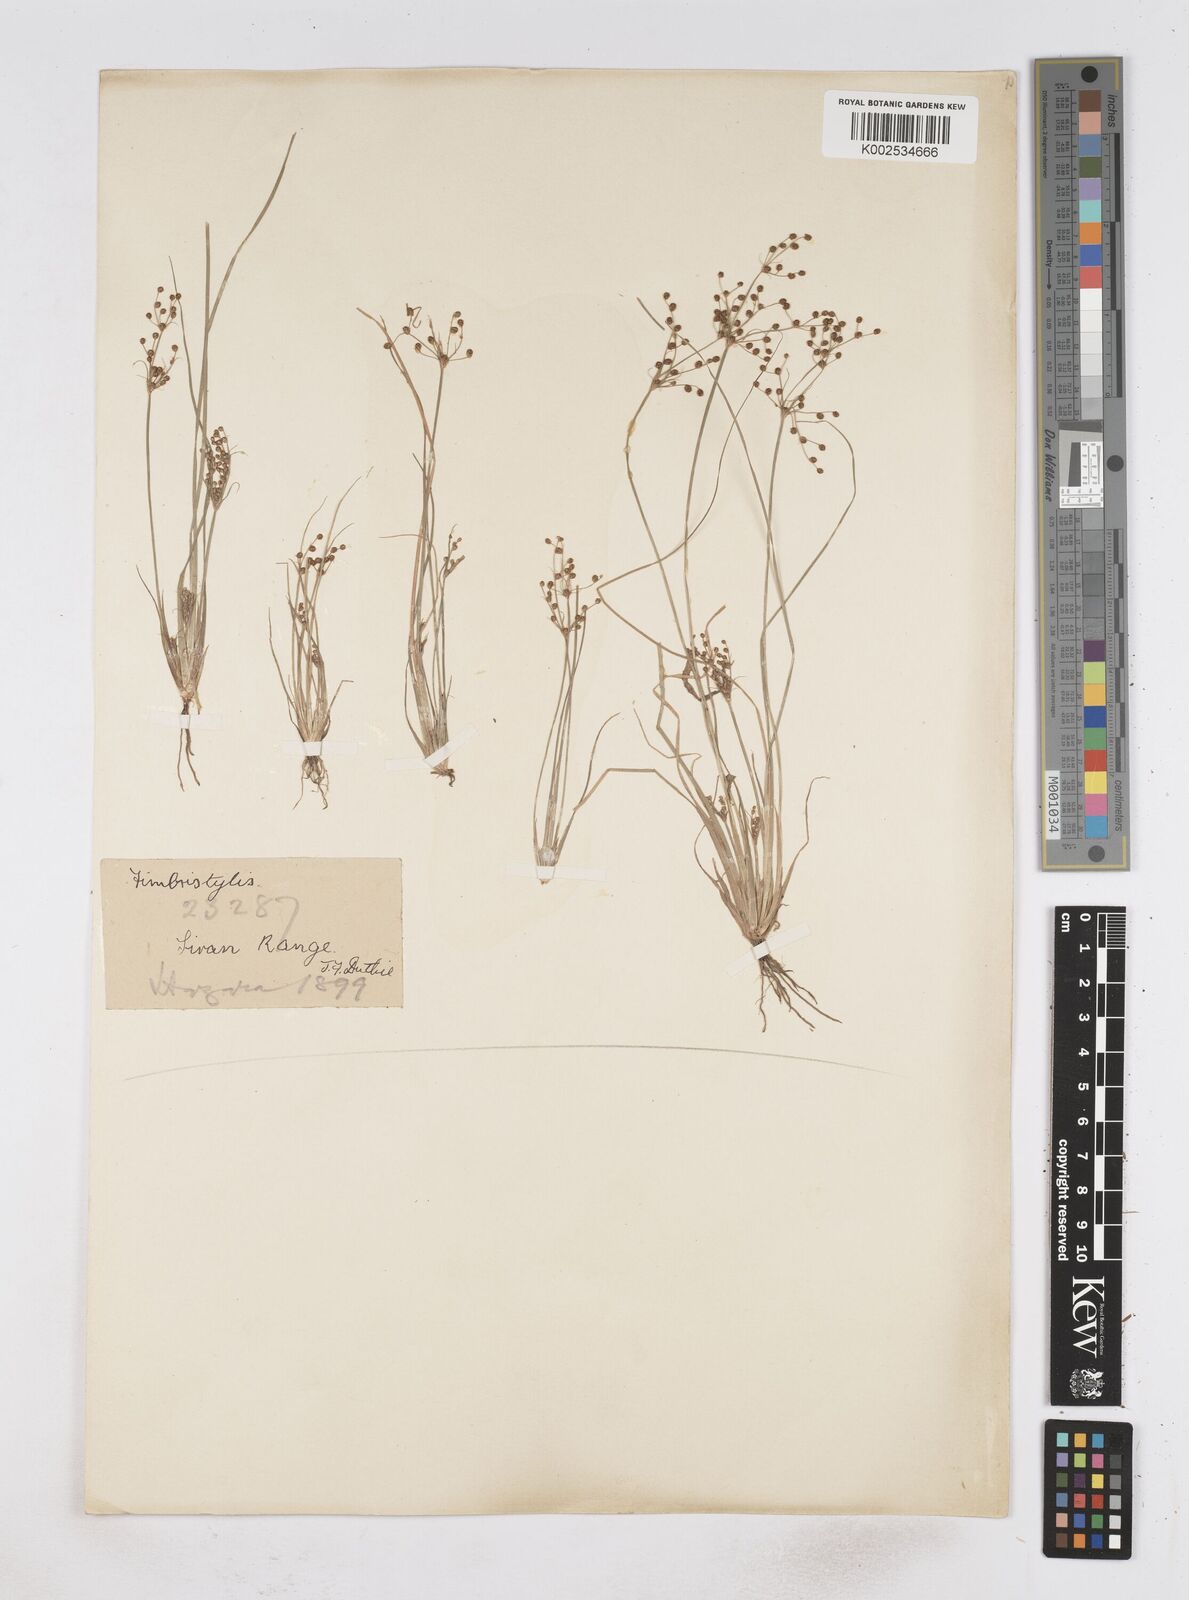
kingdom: Plantae
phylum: Tracheophyta
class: Liliopsida
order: Poales
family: Cyperaceae
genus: Fimbristylis
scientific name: Fimbristylis littoralis
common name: Fimbry
